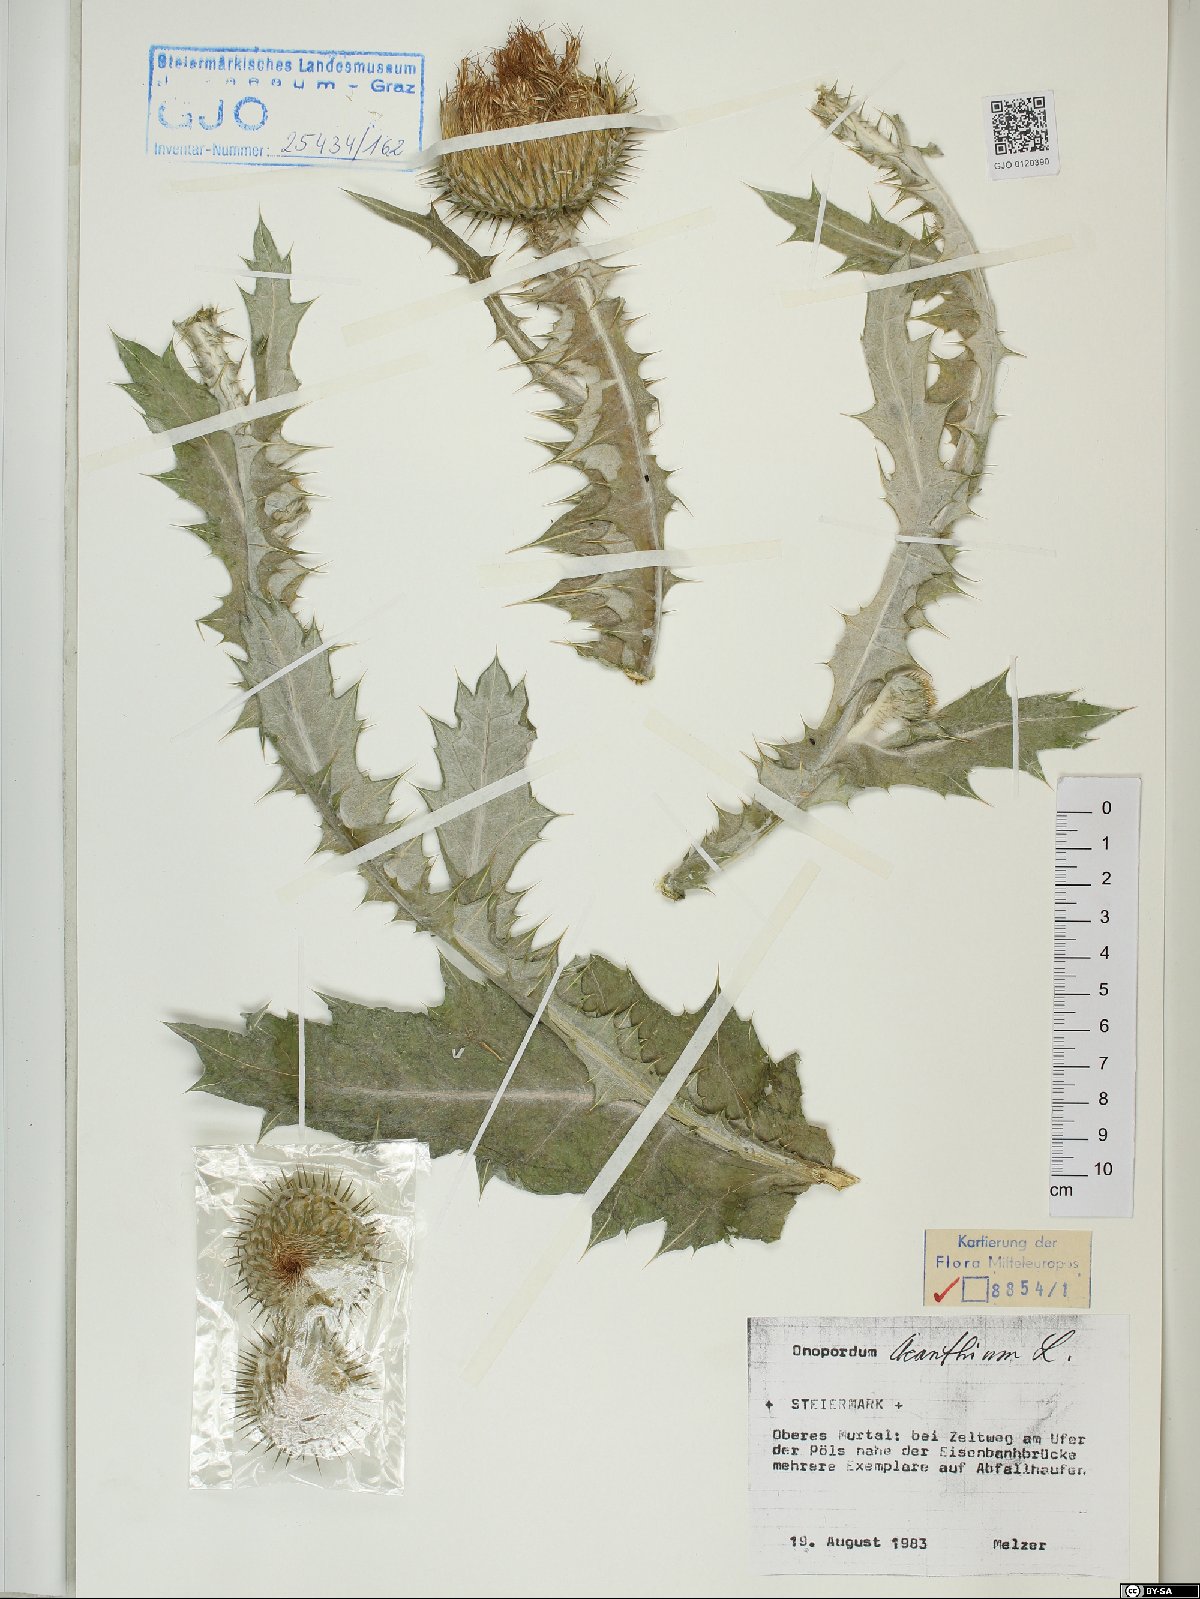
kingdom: Plantae
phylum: Tracheophyta
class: Magnoliopsida
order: Asterales
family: Asteraceae
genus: Onopordum
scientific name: Onopordum acanthium
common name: Scotch thistle
